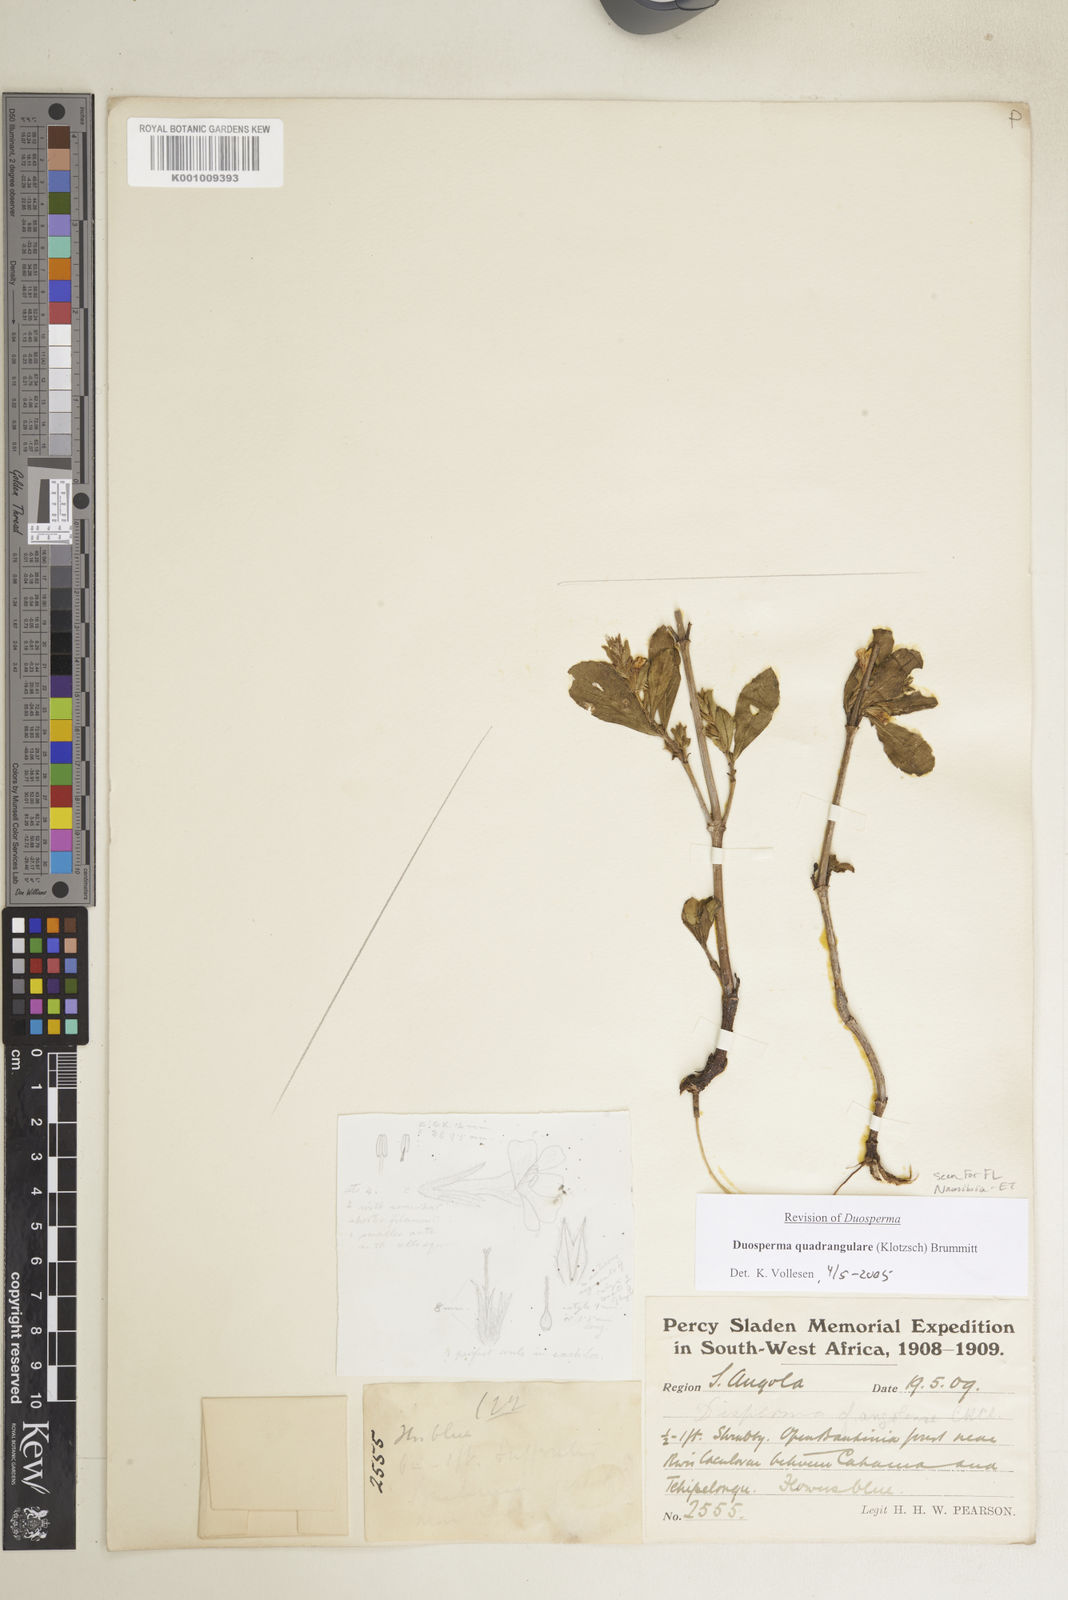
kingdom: Plantae
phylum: Tracheophyta
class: Magnoliopsida
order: Lamiales
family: Acanthaceae
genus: Duosperma
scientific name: Duosperma quadrangulare
